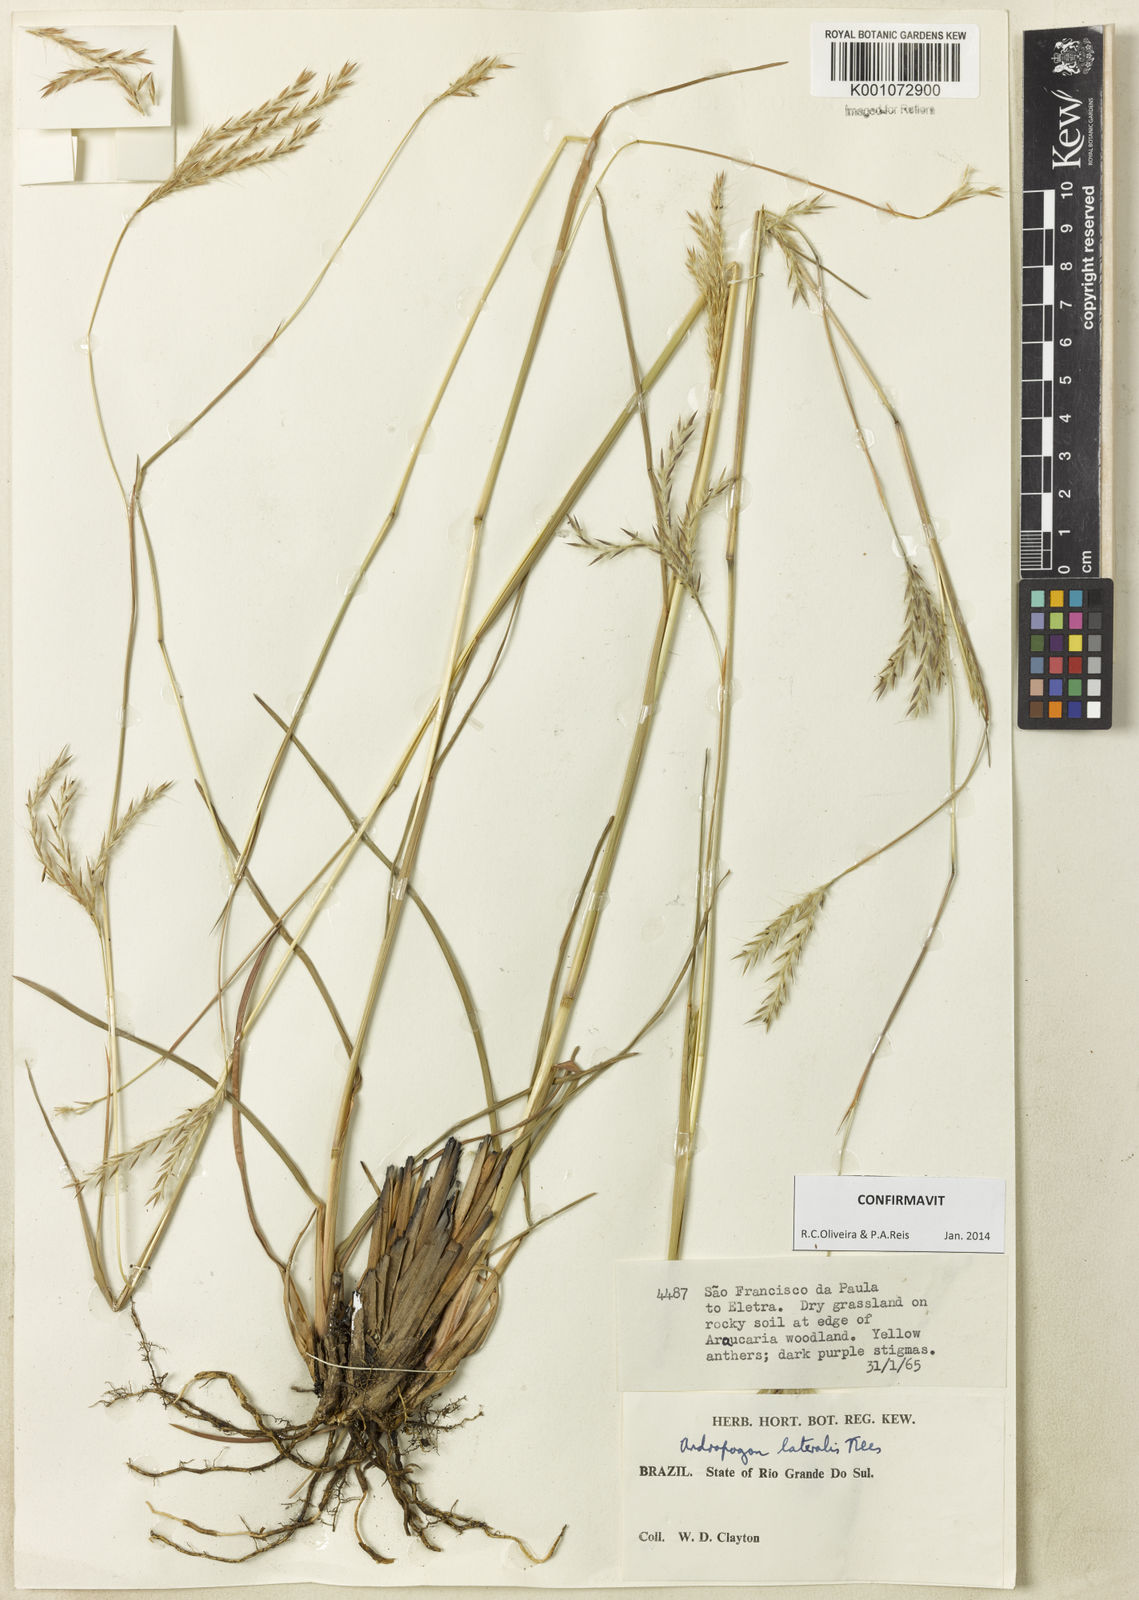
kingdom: Plantae
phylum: Tracheophyta
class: Liliopsida
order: Poales
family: Poaceae
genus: Andropogon
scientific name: Andropogon lateralis
